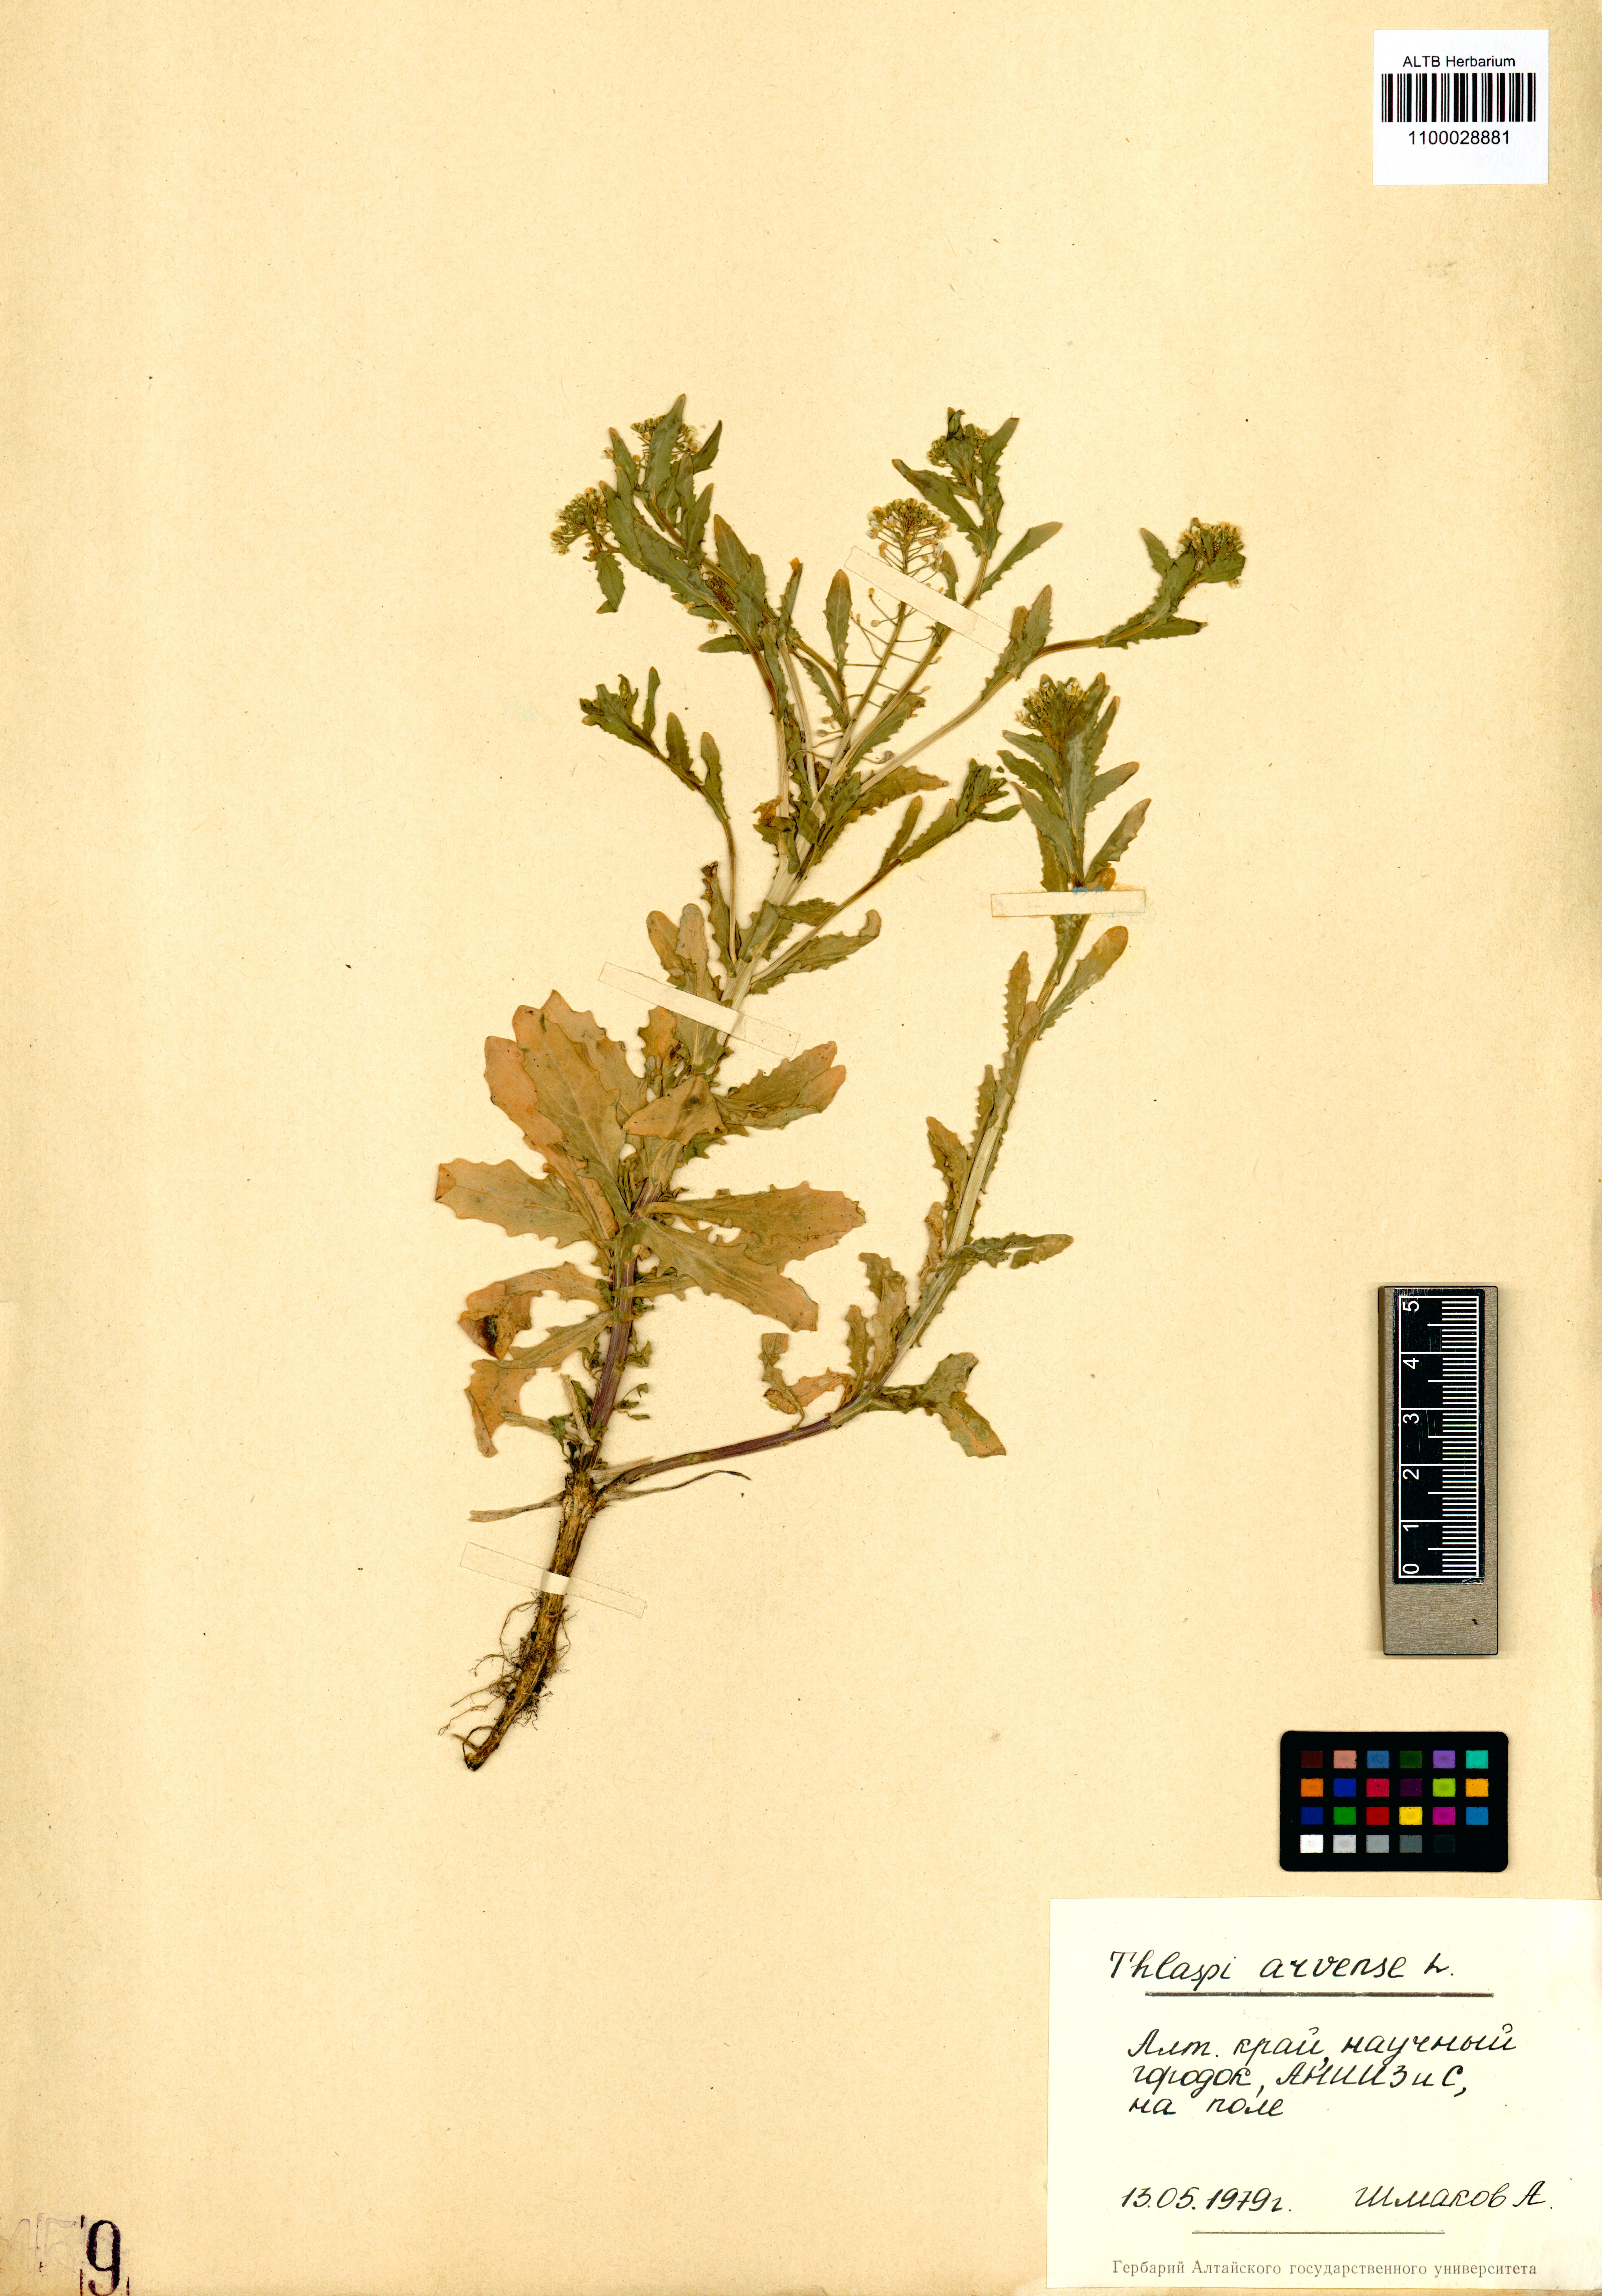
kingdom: Plantae
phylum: Tracheophyta
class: Magnoliopsida
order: Brassicales
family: Brassicaceae
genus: Thlaspi
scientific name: Thlaspi arvense
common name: Field pennycress
